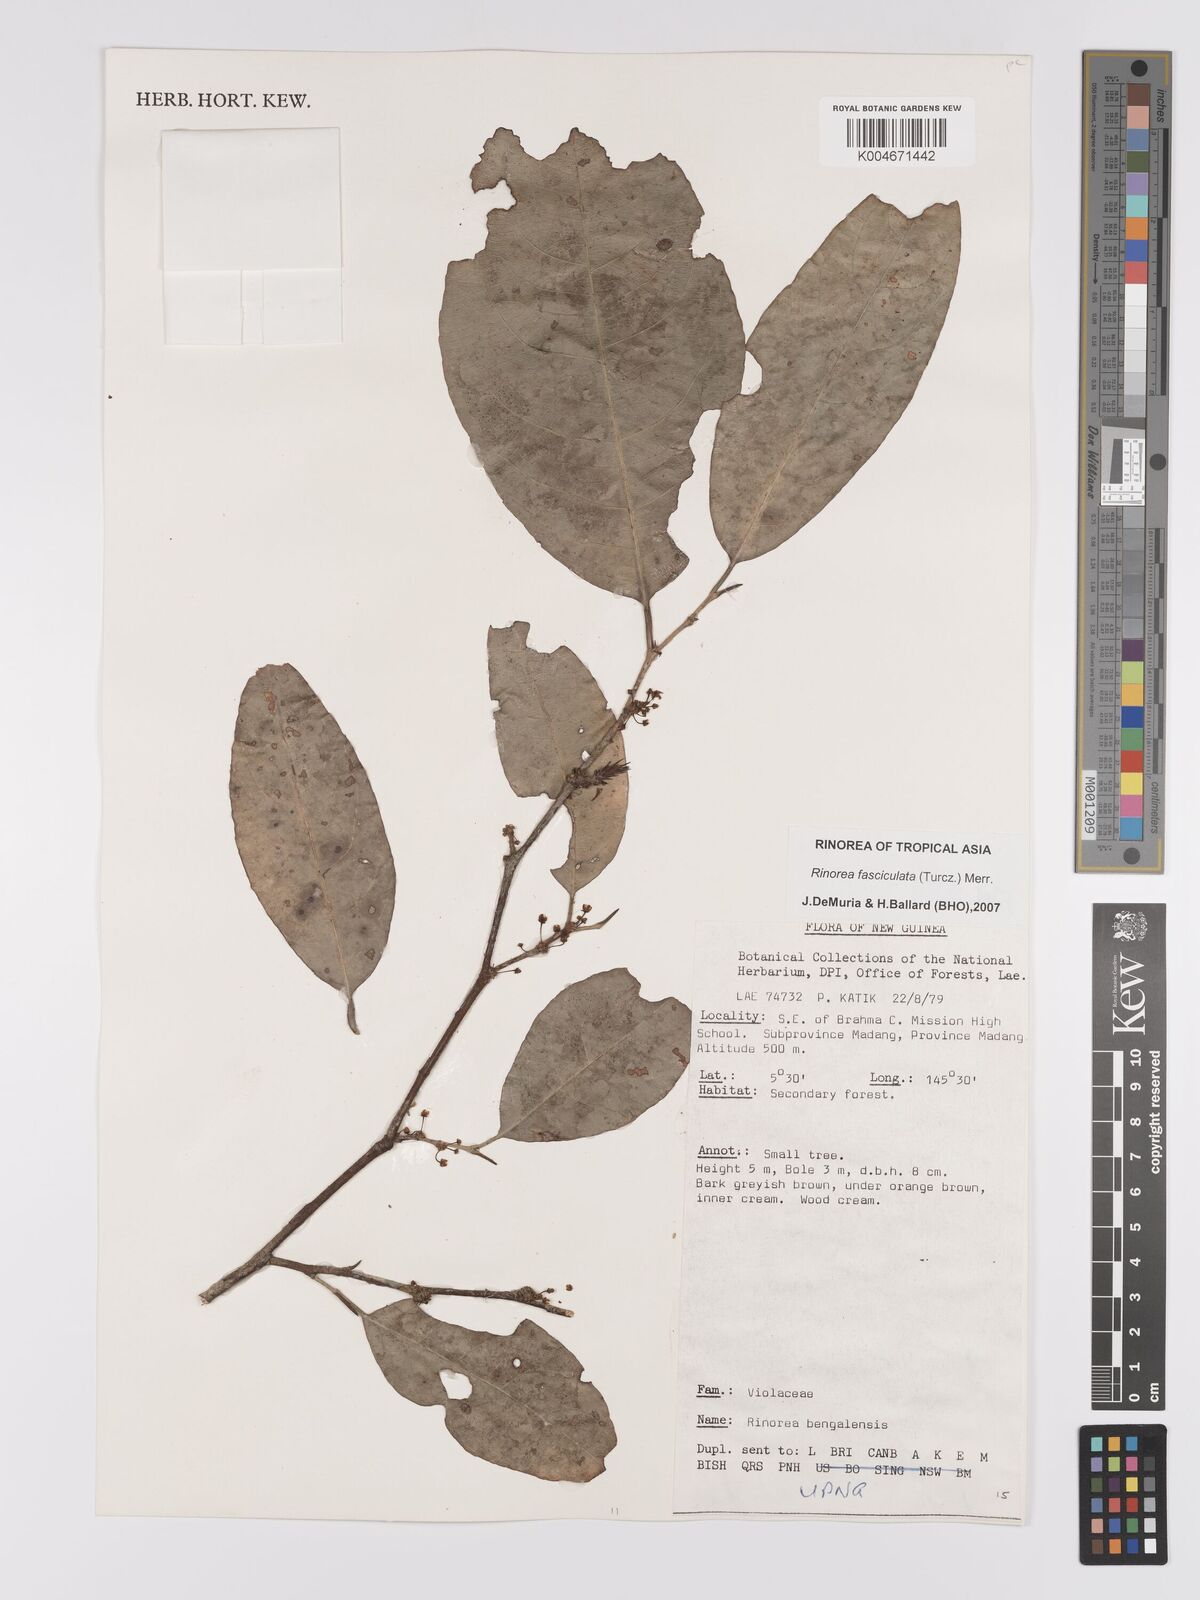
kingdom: Plantae
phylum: Tracheophyta
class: Magnoliopsida
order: Malpighiales
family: Violaceae
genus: Rinorea
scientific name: Rinorea bengalensis
